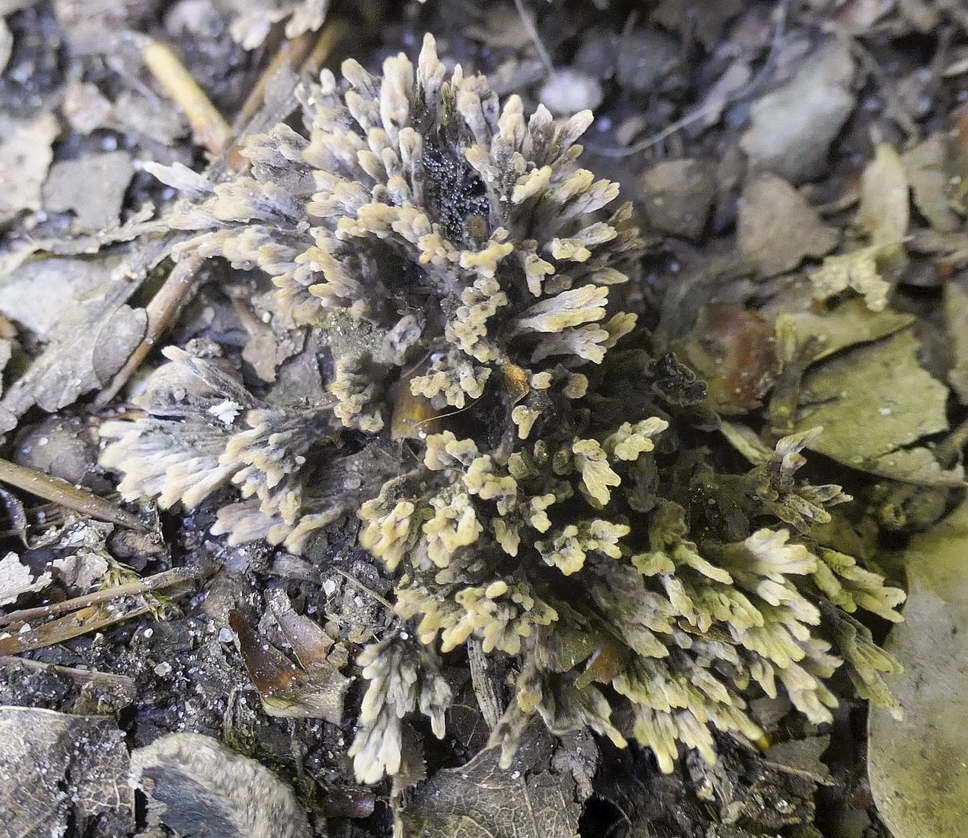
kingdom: Fungi
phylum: Basidiomycota
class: Agaricomycetes
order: Thelephorales
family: Thelephoraceae
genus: Thelephora
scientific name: Thelephora anthocephala
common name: busk-frynsesvamp
